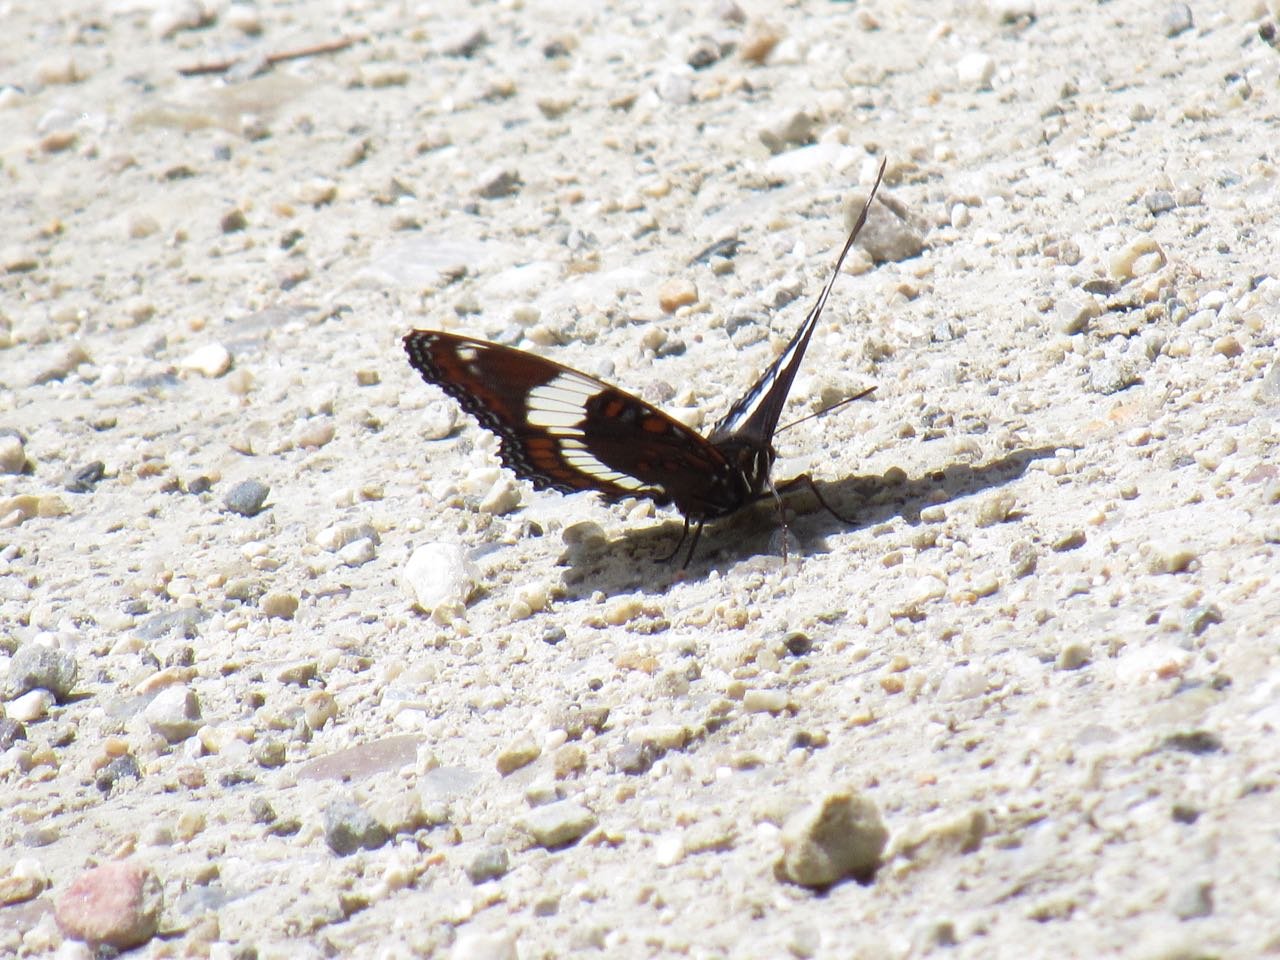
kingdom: Animalia
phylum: Arthropoda
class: Insecta
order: Lepidoptera
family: Nymphalidae
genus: Limenitis
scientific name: Limenitis arthemis
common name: Red-spotted Admiral
